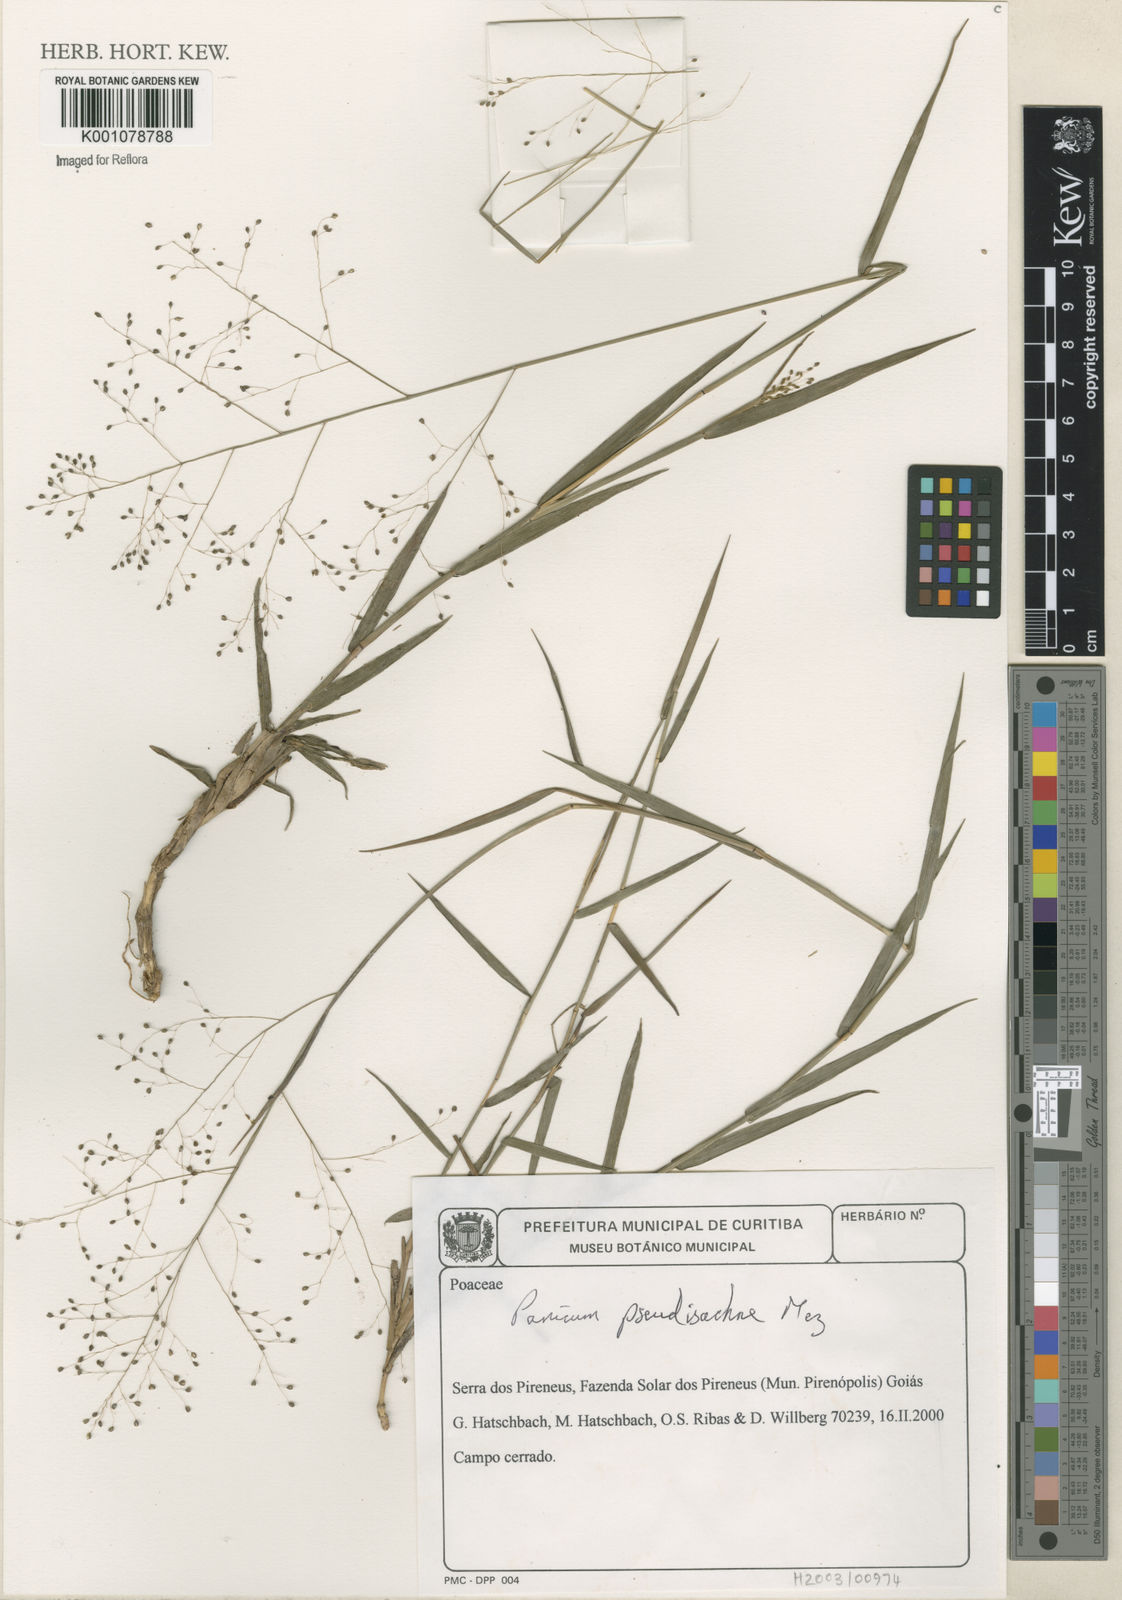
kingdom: Plantae
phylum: Tracheophyta
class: Liliopsida
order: Poales
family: Poaceae
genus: Trichanthecium
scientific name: Trichanthecium pseudisachne
